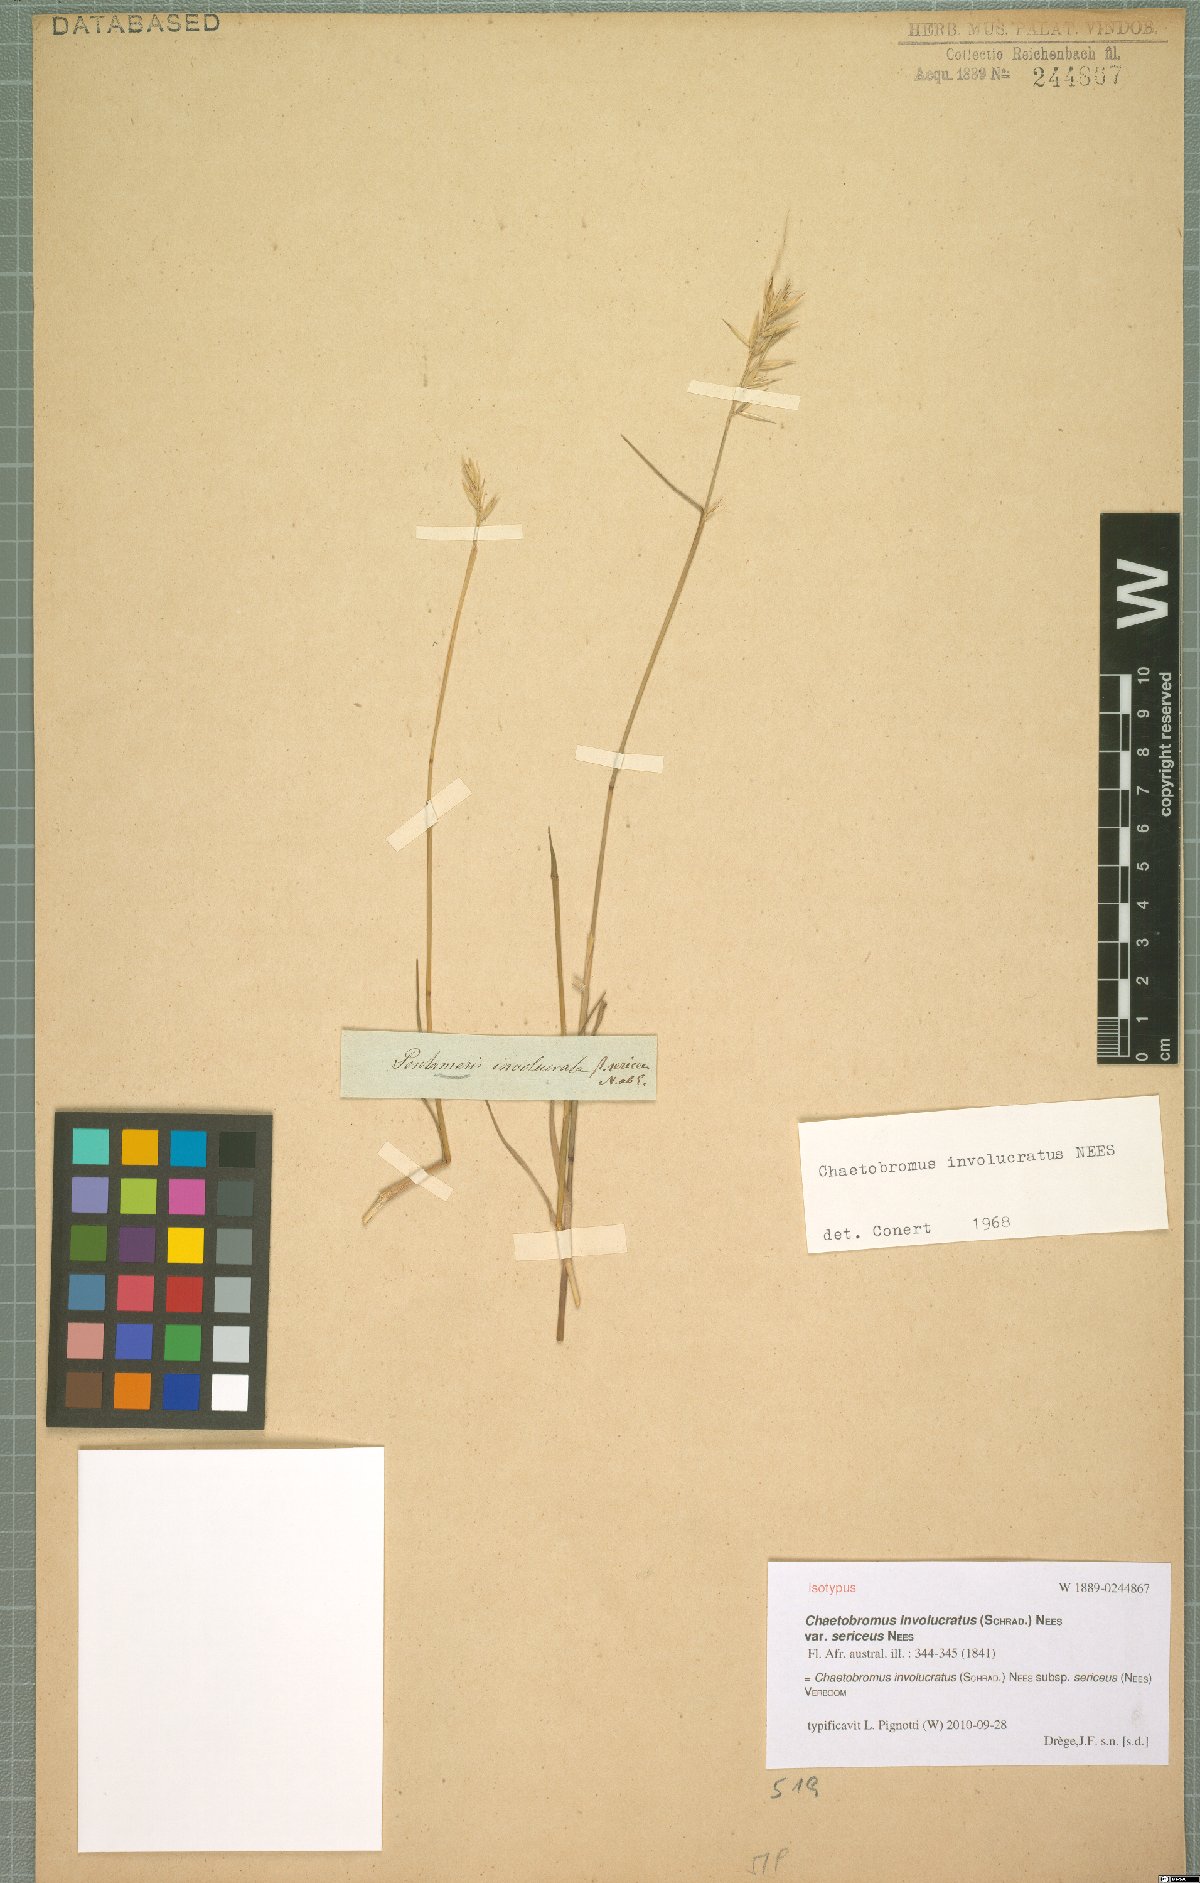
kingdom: Plantae
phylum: Tracheophyta
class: Liliopsida
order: Poales
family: Poaceae
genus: Chaetobromus
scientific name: Chaetobromus involucratus
